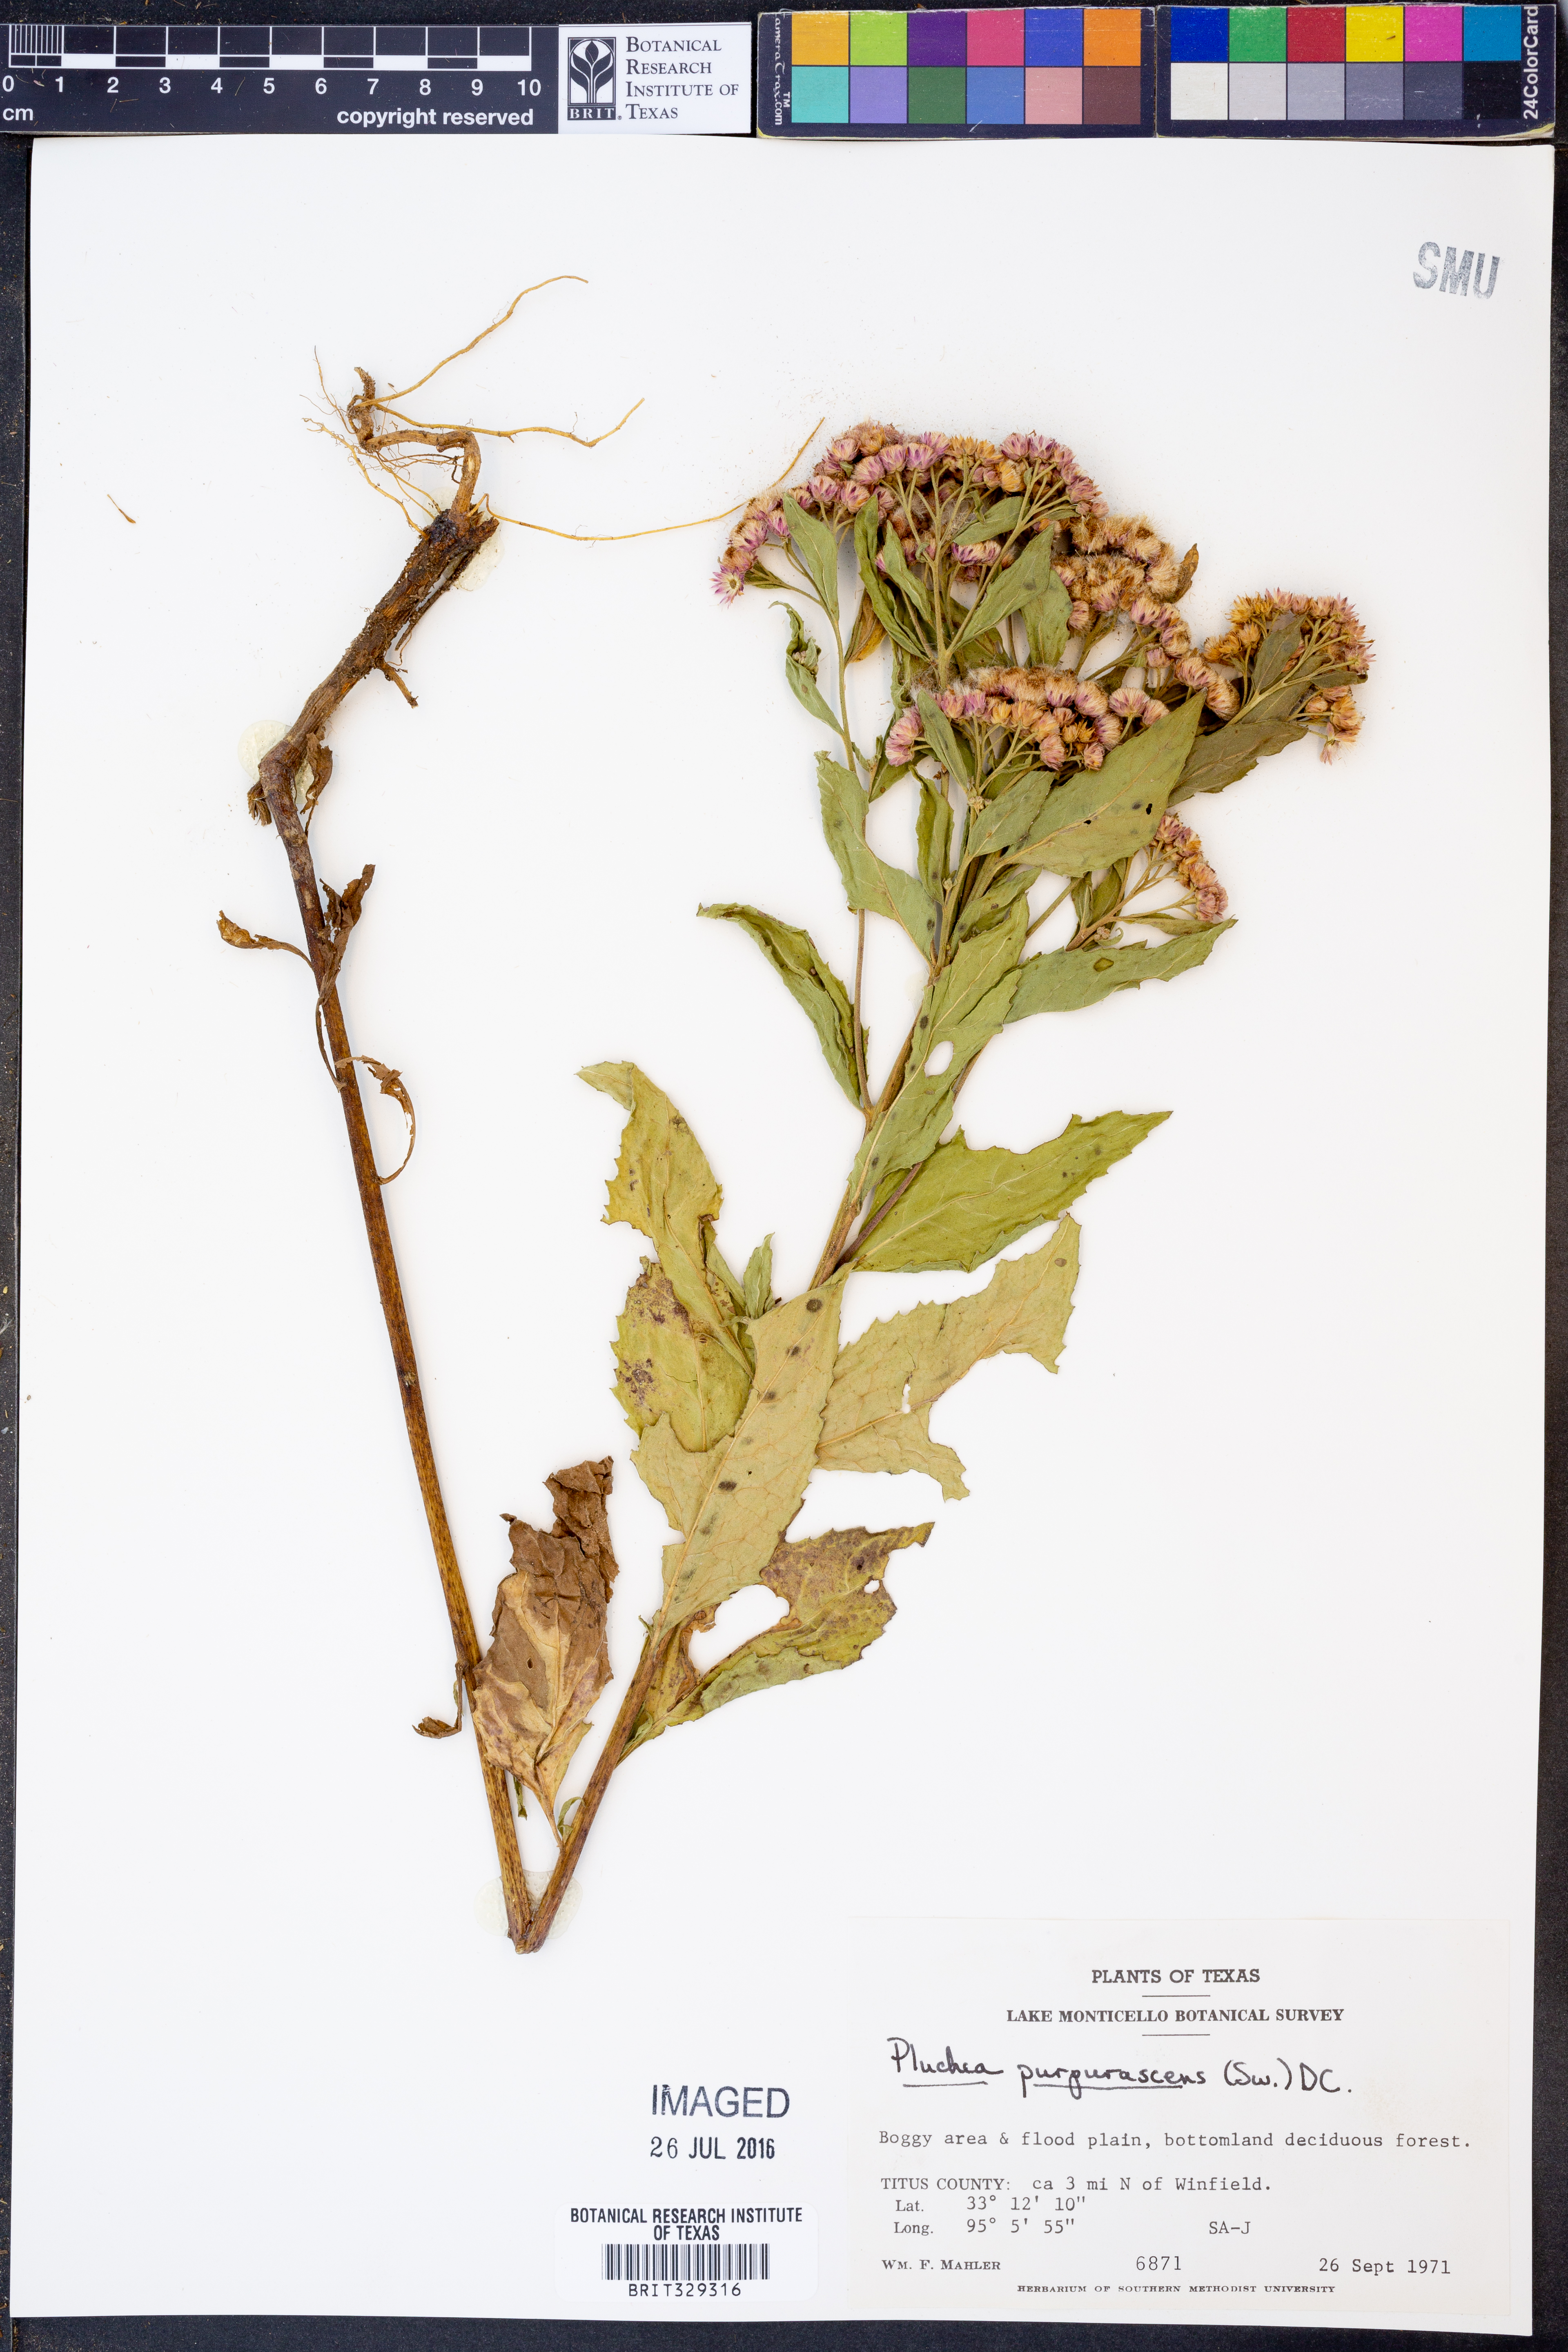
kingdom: Plantae
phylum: Tracheophyta
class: Magnoliopsida
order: Asterales
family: Asteraceae
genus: Pluchea
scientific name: Pluchea odorata
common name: Saltmarsh fleabane
